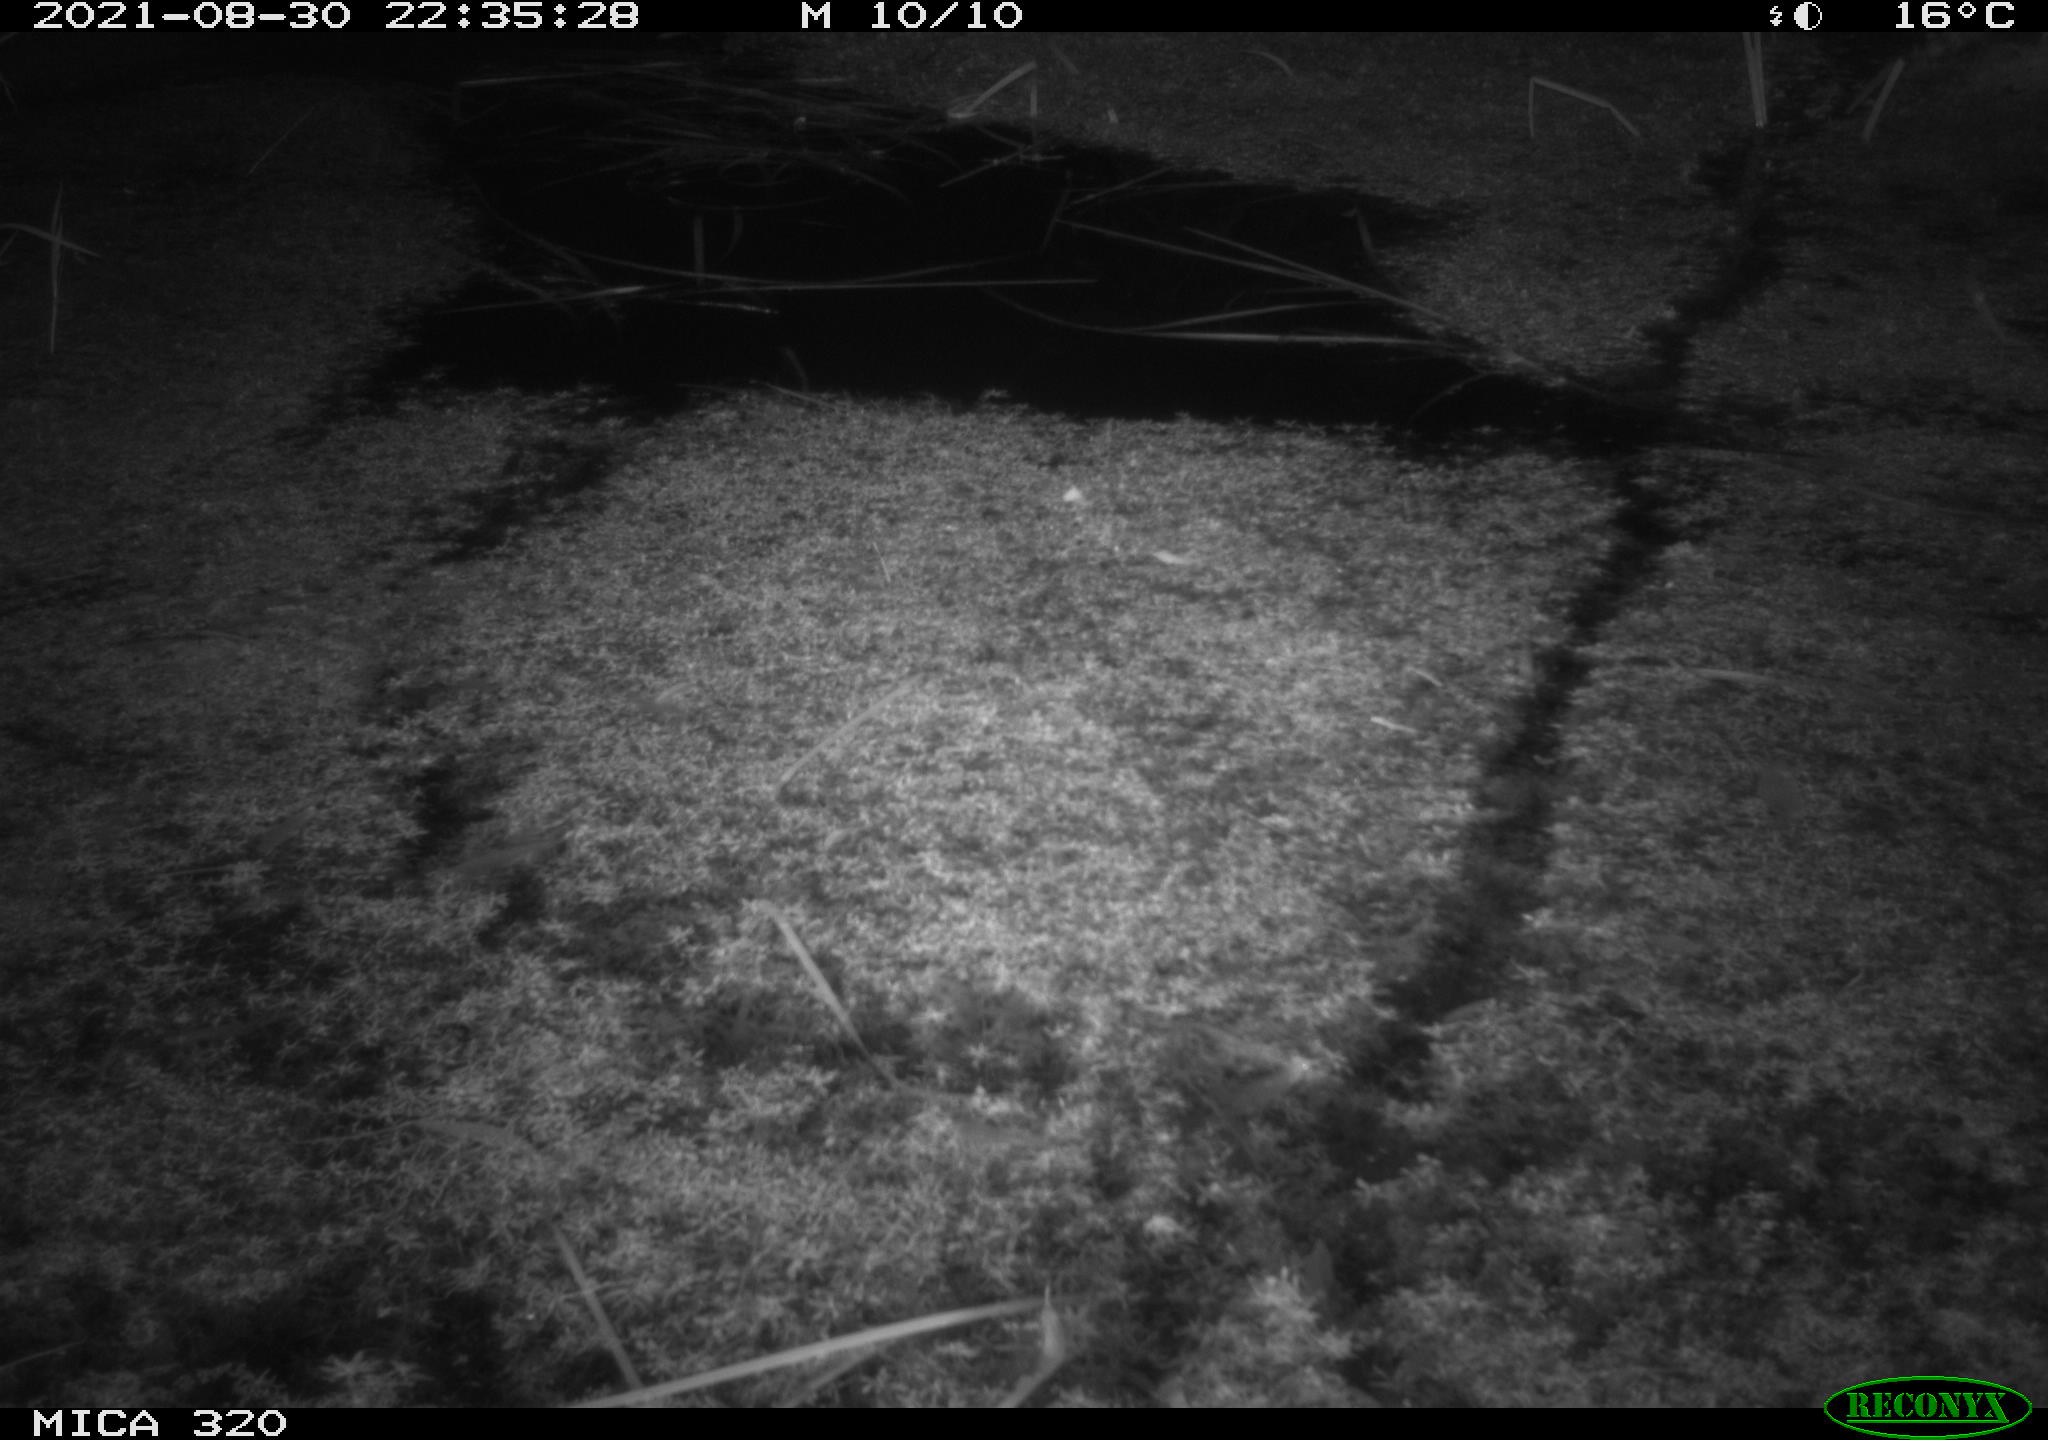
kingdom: Animalia
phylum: Chordata
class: Mammalia
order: Rodentia
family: Muridae
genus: Rattus
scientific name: Rattus norvegicus
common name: Brown rat
